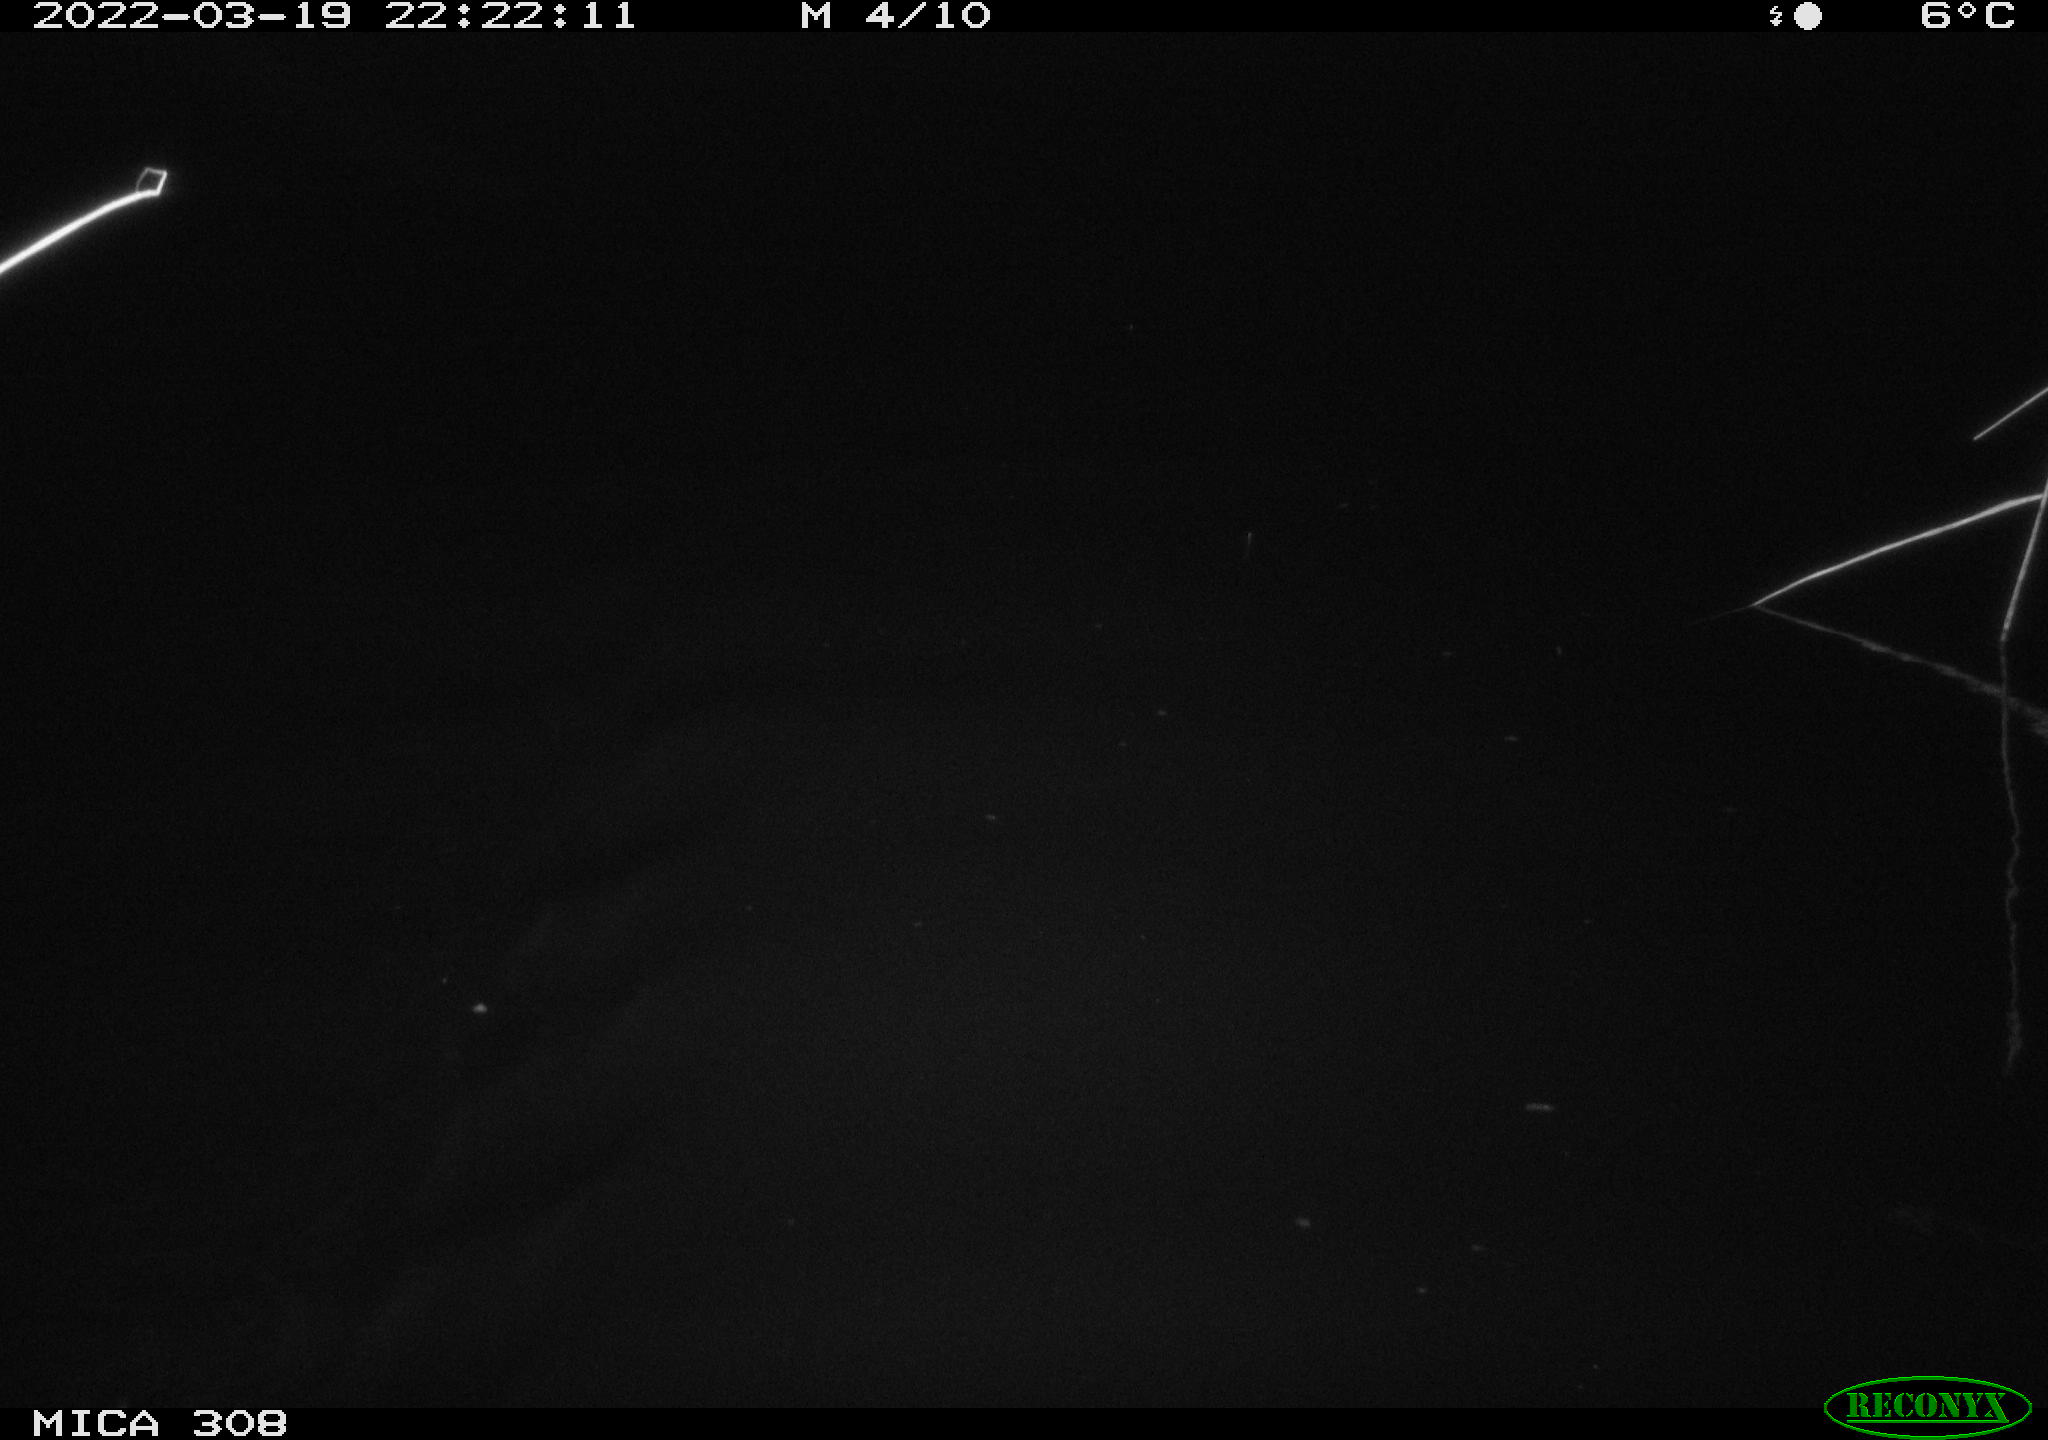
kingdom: Animalia
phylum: Chordata
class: Mammalia
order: Rodentia
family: Cricetidae
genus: Ondatra
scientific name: Ondatra zibethicus
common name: Muskrat
